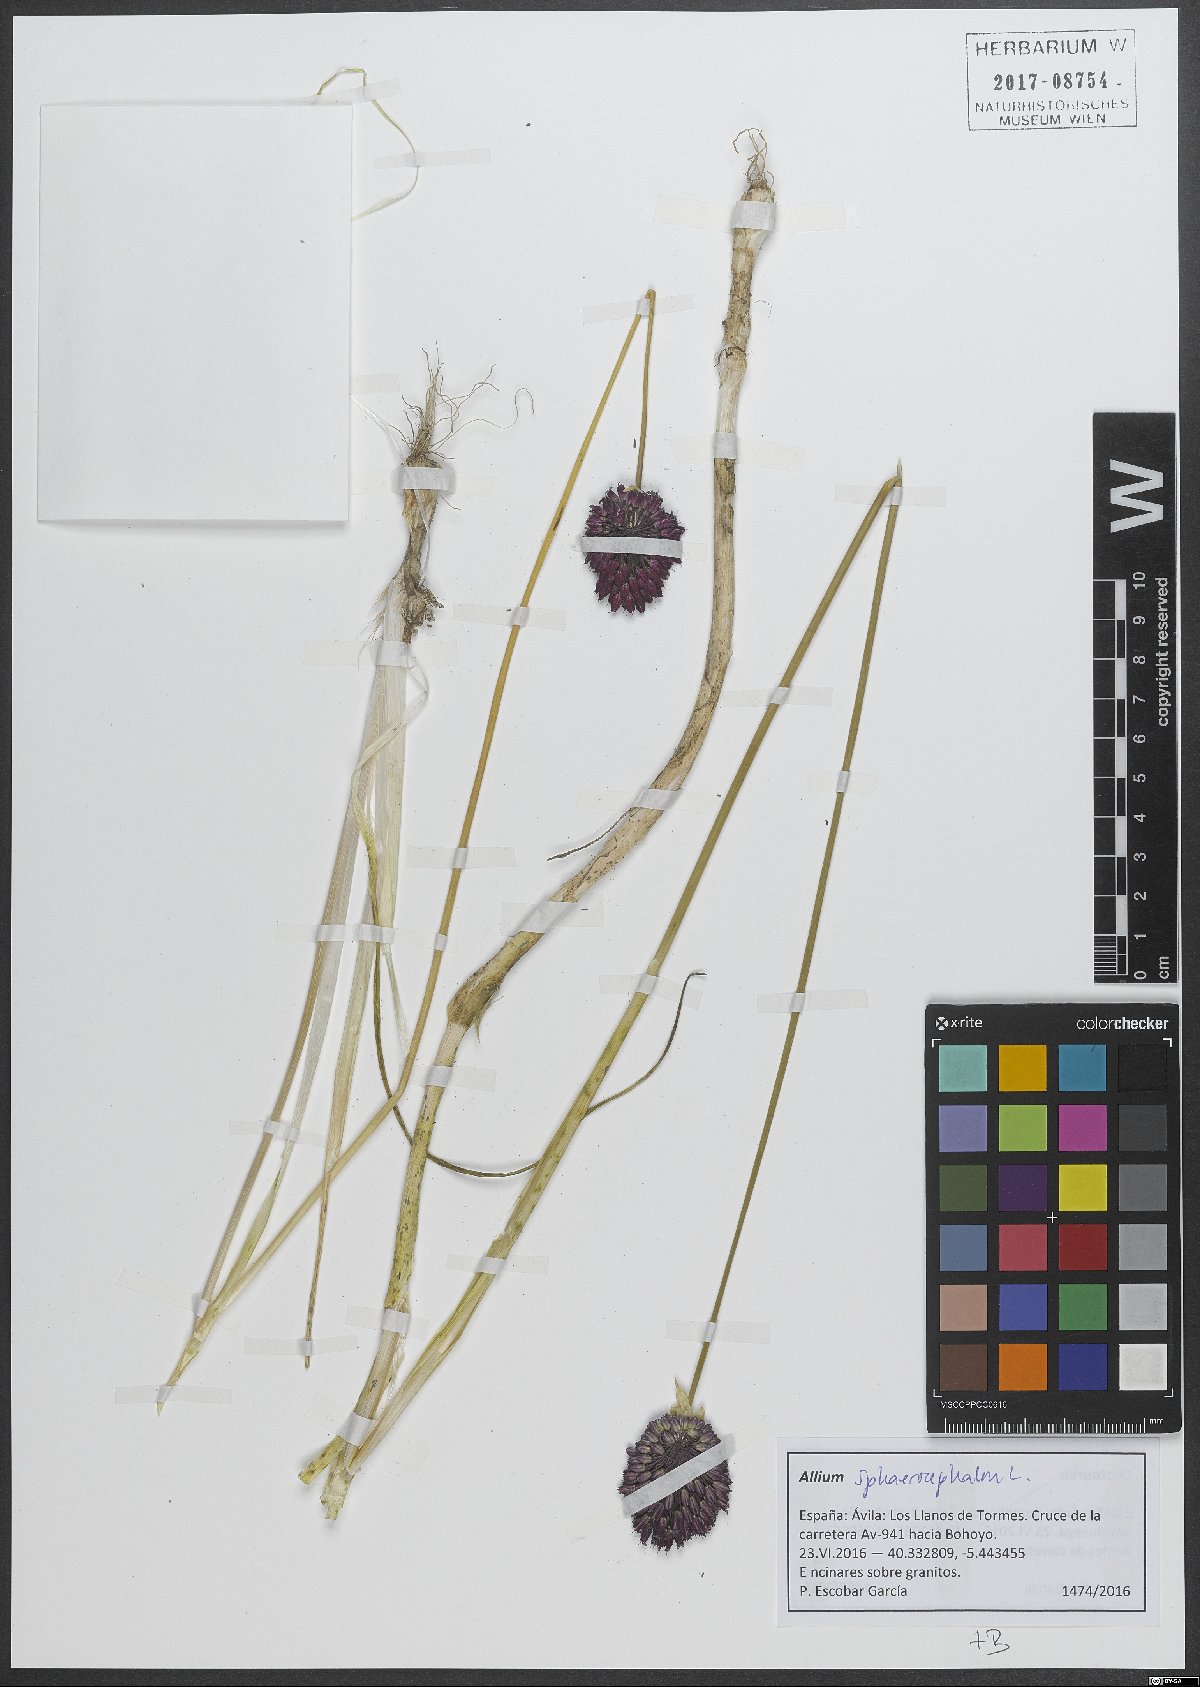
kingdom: Plantae
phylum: Tracheophyta
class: Liliopsida
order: Asparagales
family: Amaryllidaceae
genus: Allium
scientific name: Allium sphaerocephalon
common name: Round-headed leek
